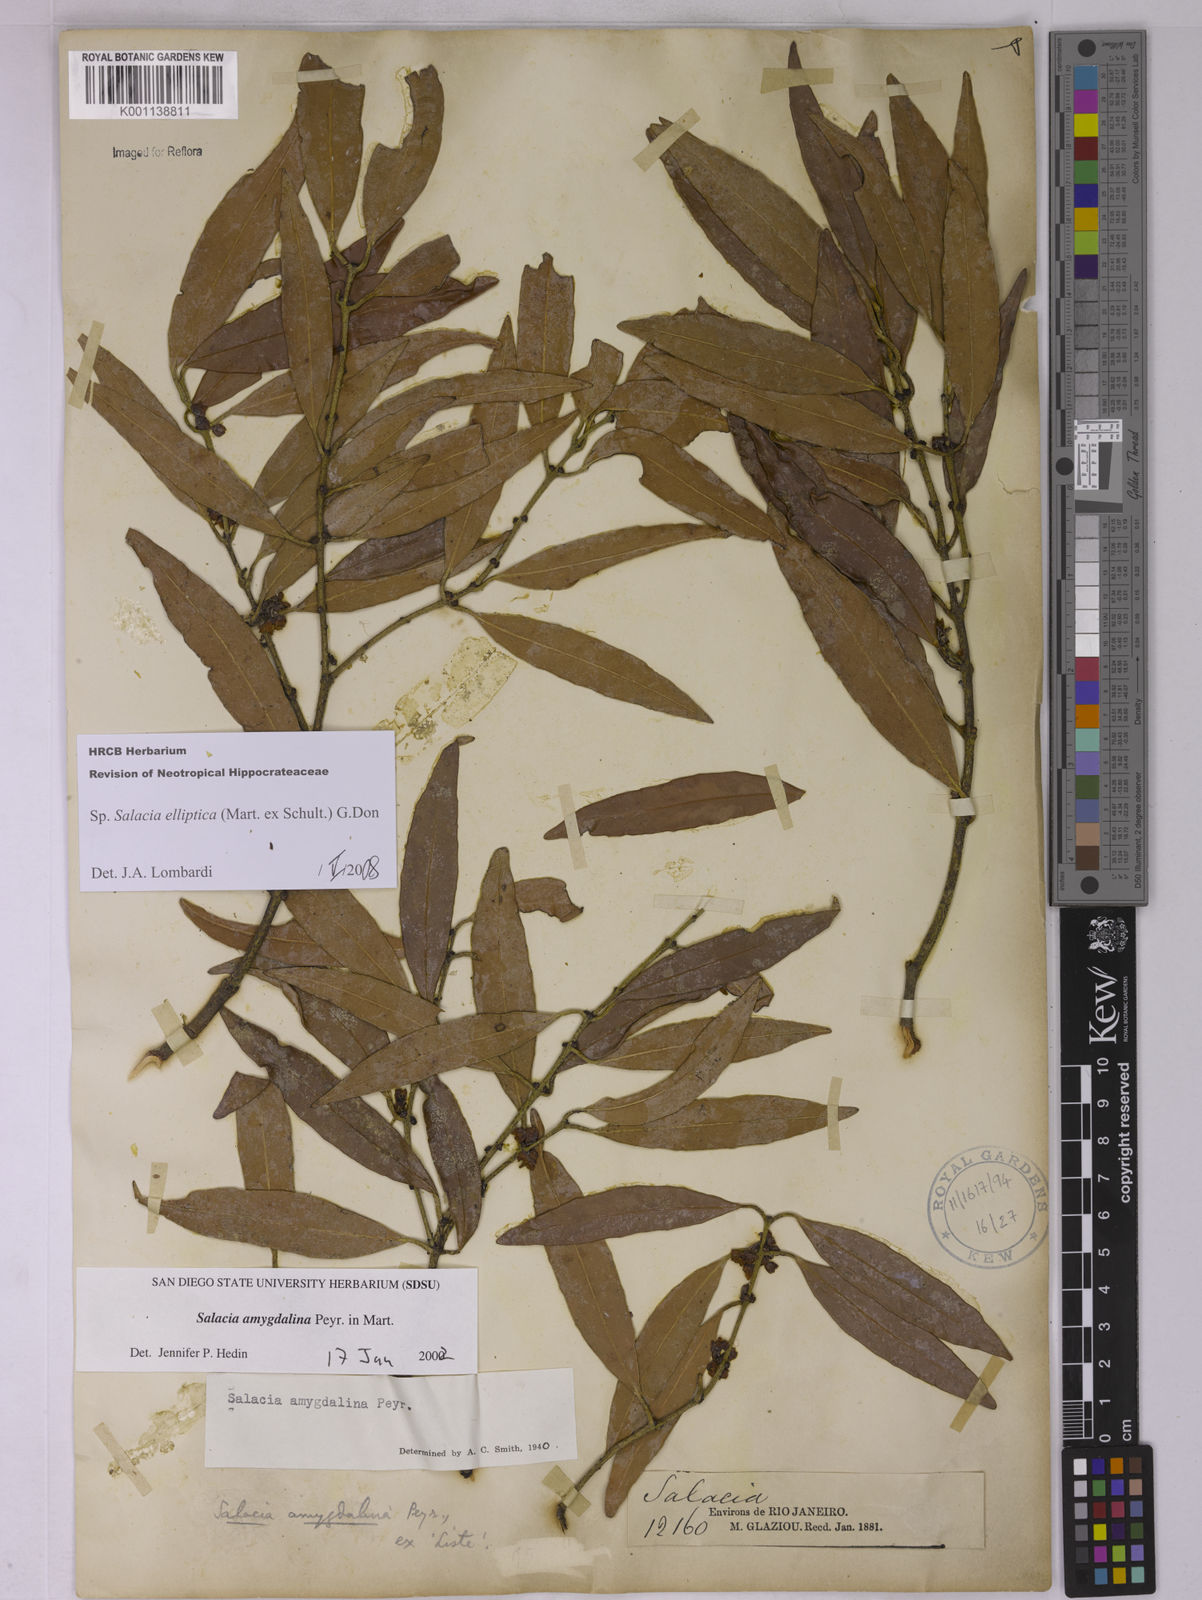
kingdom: Plantae
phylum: Tracheophyta
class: Magnoliopsida
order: Celastrales
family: Celastraceae
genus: Salacia
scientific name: Salacia elliptica
